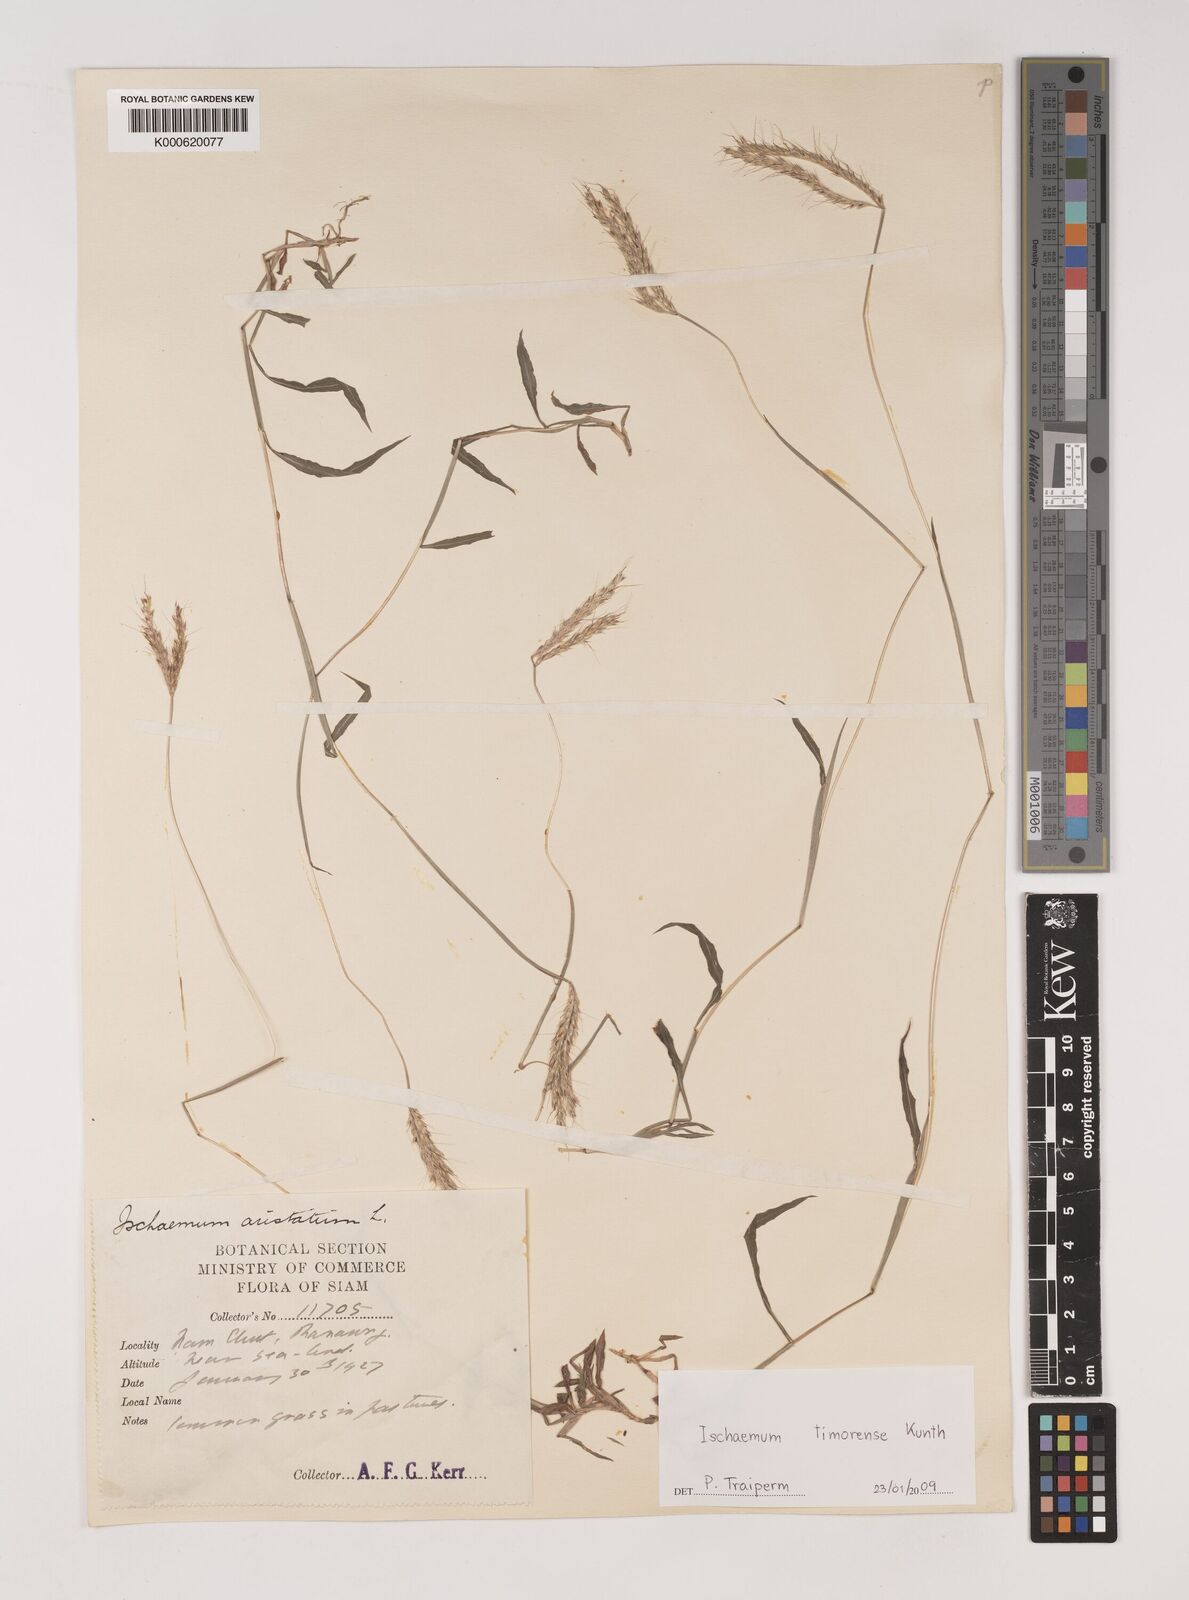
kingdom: Plantae
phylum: Tracheophyta
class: Liliopsida
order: Poales
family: Poaceae
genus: Ischaemum
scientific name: Ischaemum timorense
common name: Stalkleaf murainagrass
